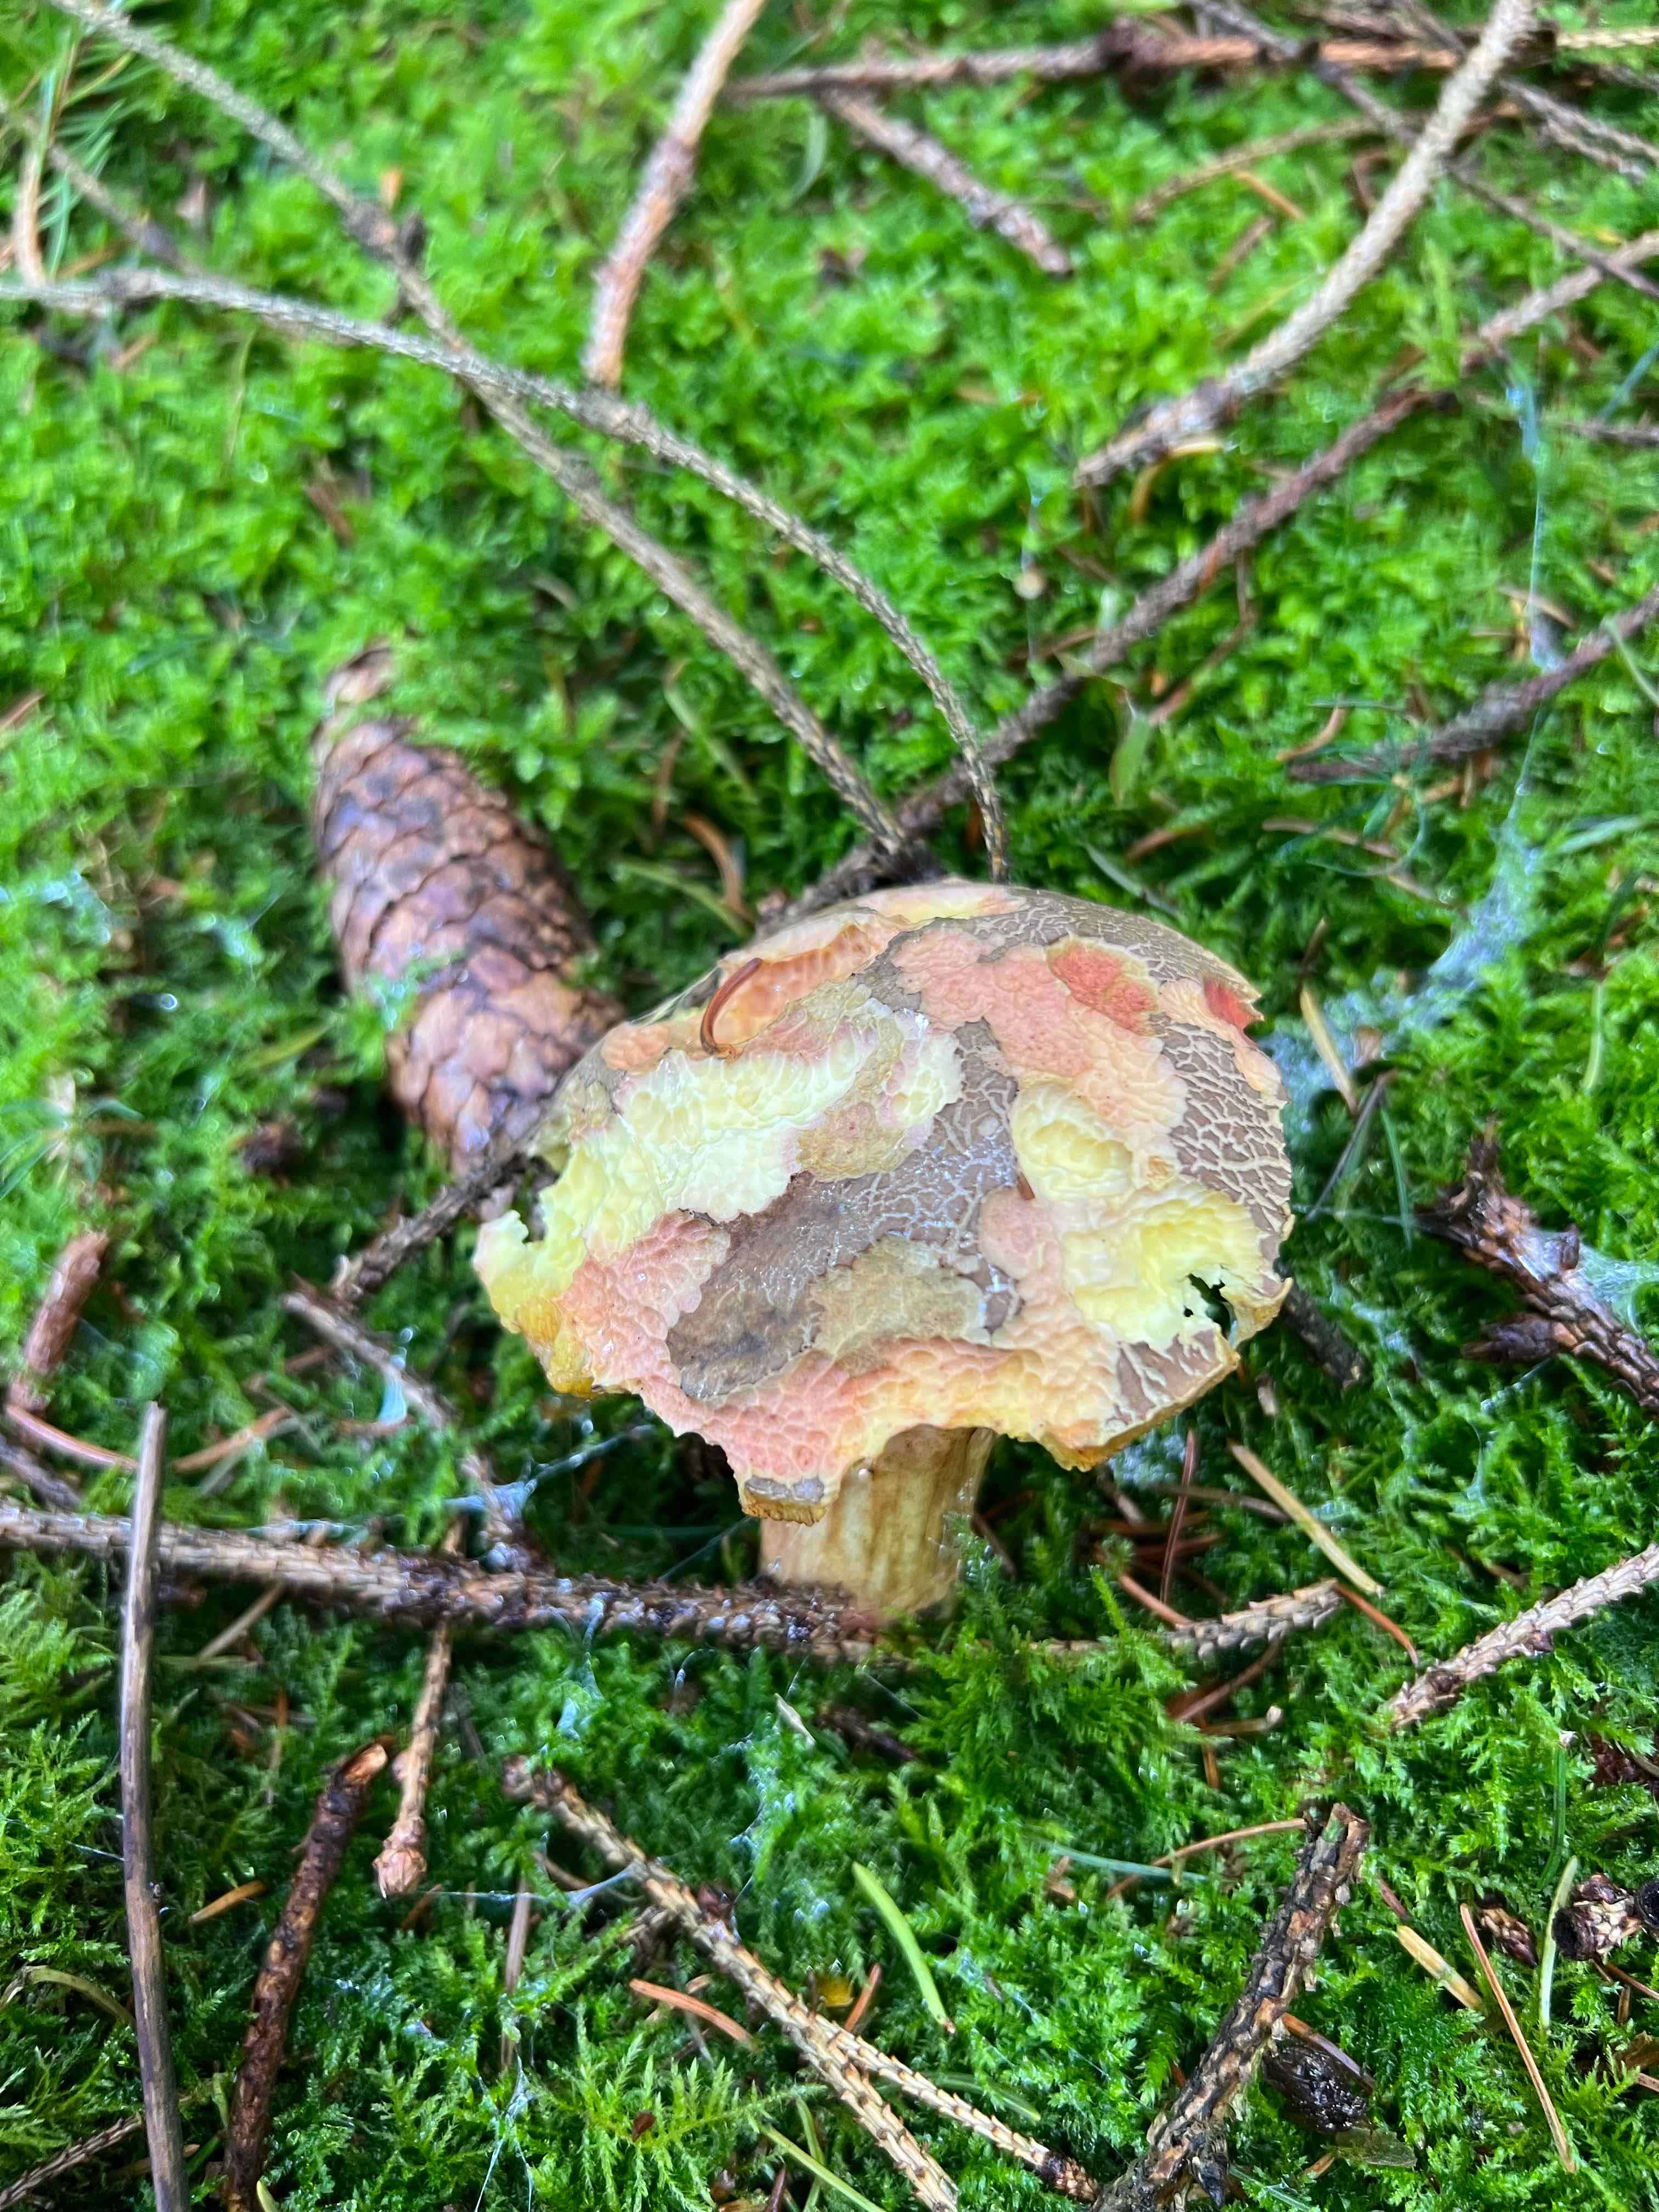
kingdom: Fungi
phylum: Basidiomycota
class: Agaricomycetes
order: Boletales
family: Boletaceae
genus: Xerocomellus
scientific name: Xerocomellus pruinatus
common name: dugget rørhat
